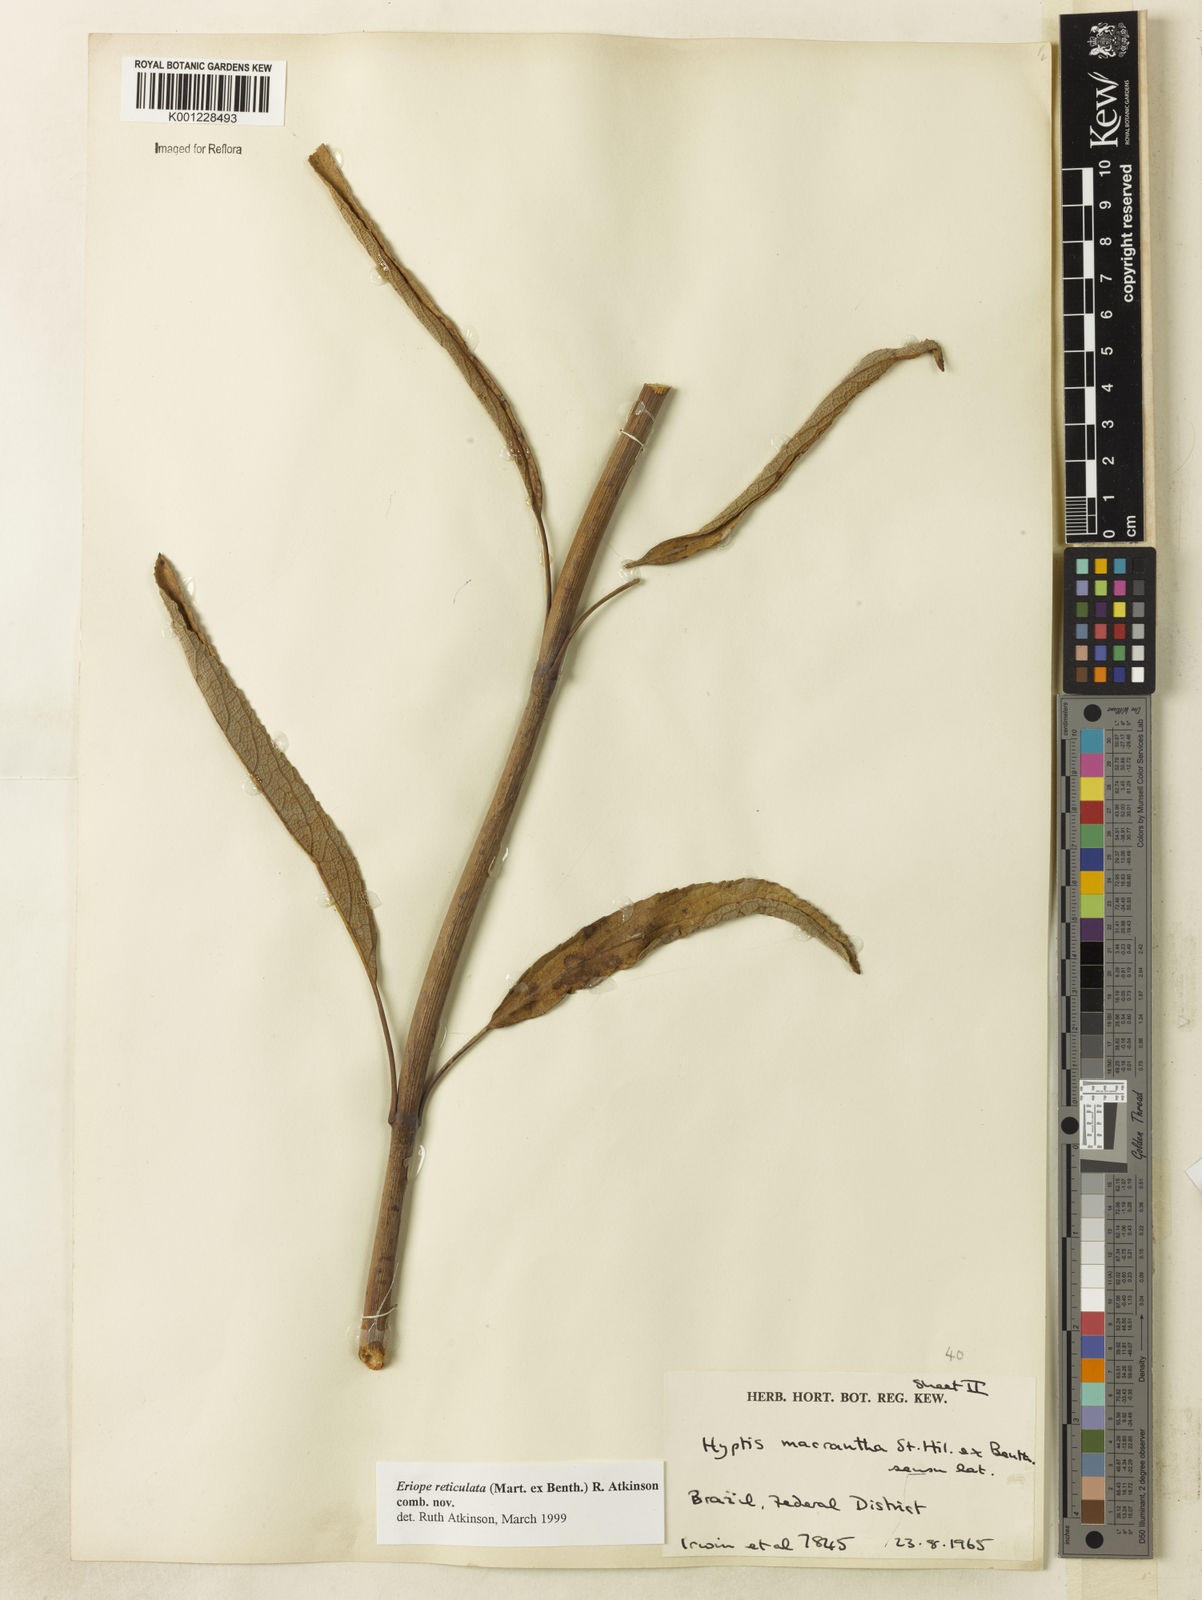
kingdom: Plantae
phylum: Tracheophyta
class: Magnoliopsida
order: Lamiales
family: Lamiaceae
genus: Hypenia
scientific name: Hypenia reticulata
